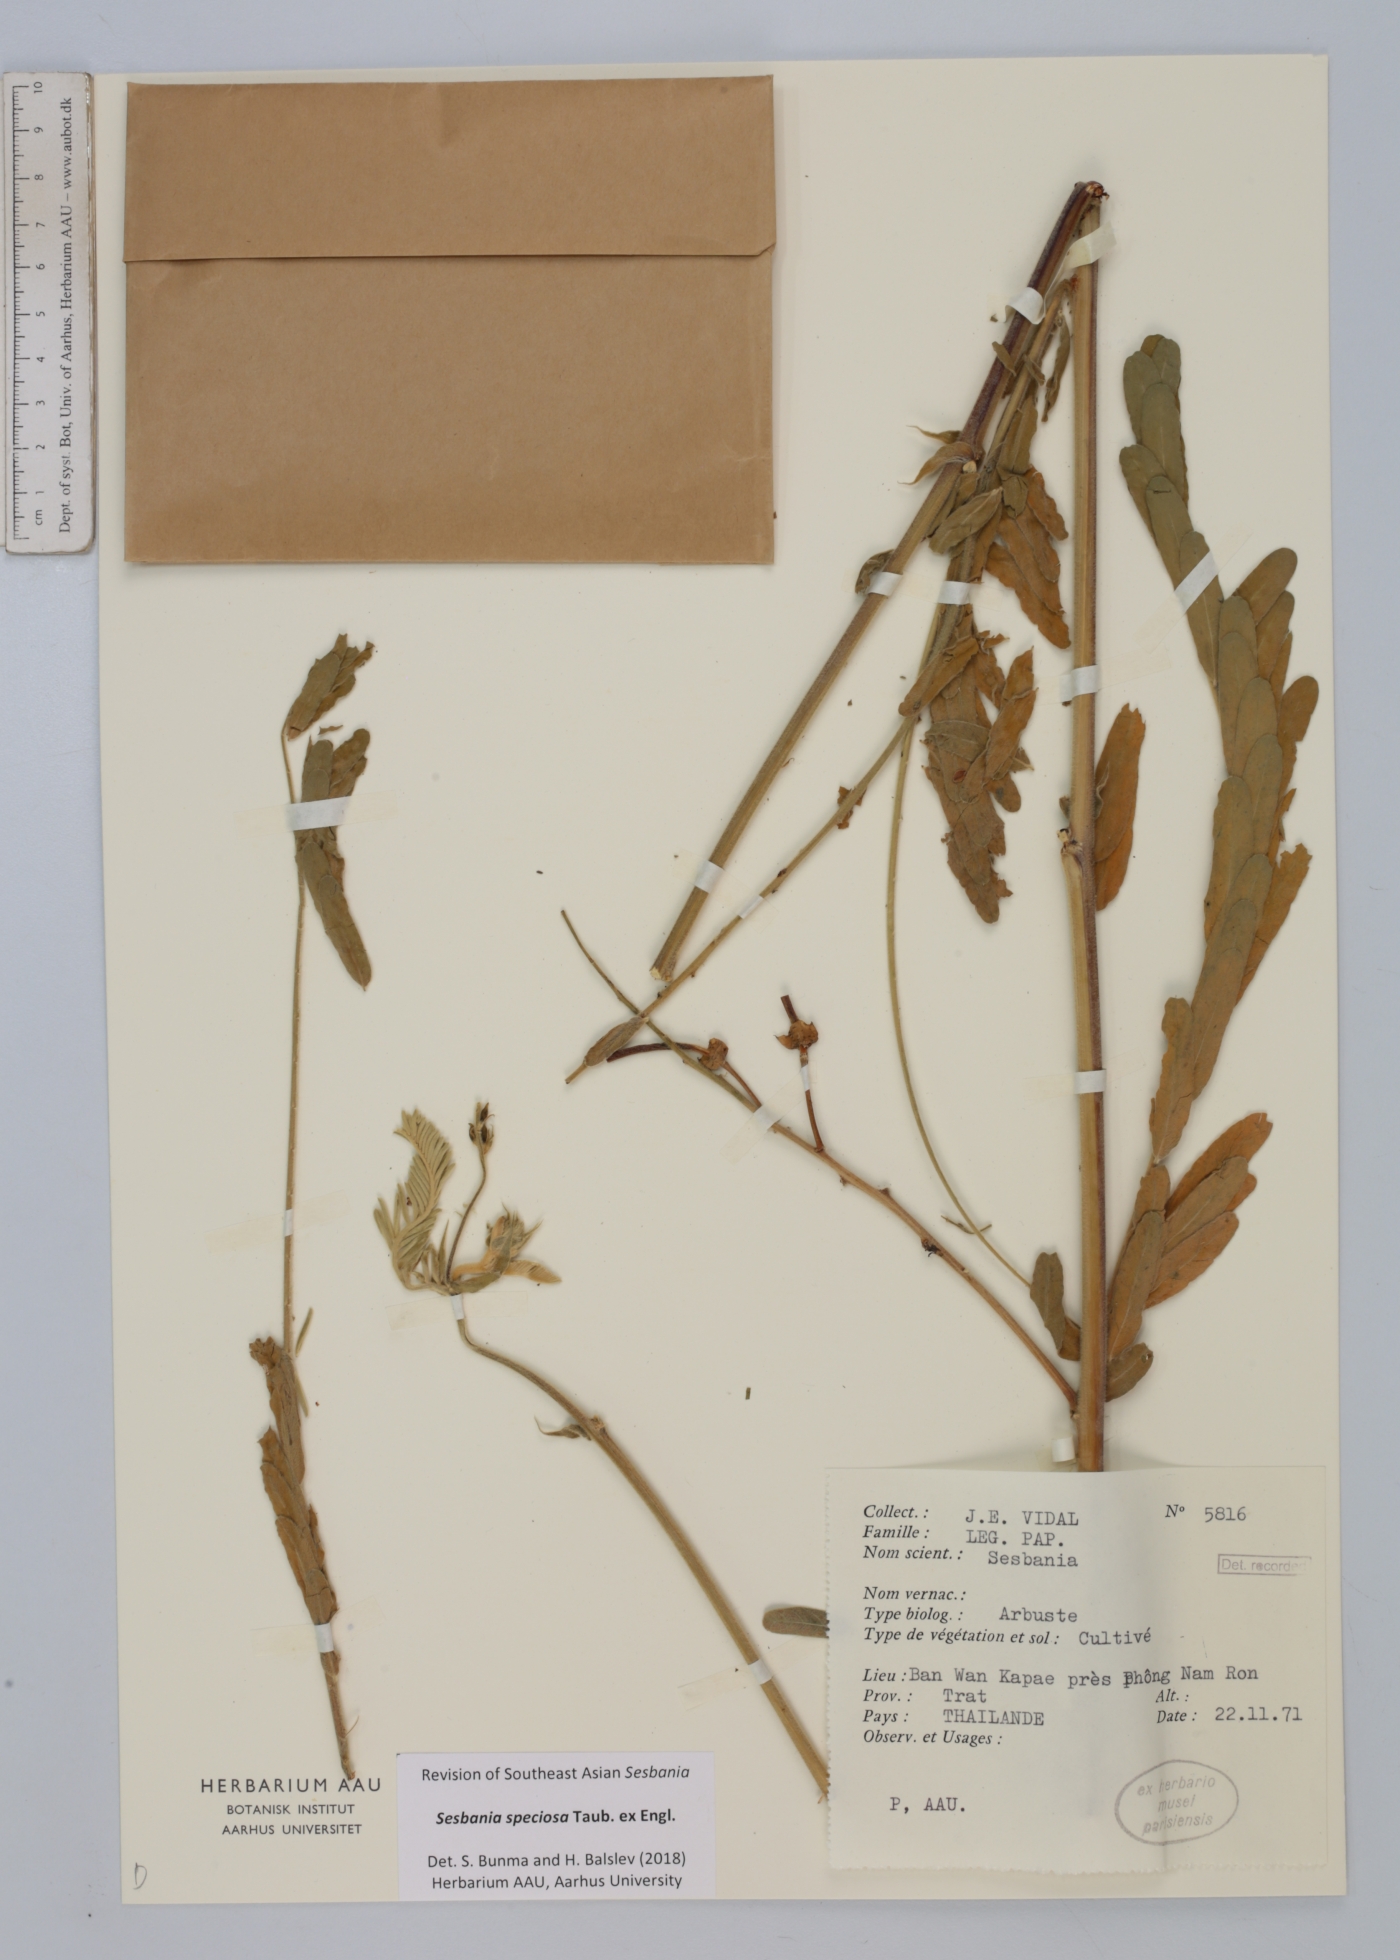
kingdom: Plantae
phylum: Tracheophyta
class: Magnoliopsida
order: Fabales
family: Fabaceae
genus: Sesbania
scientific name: Sesbania speciosa
